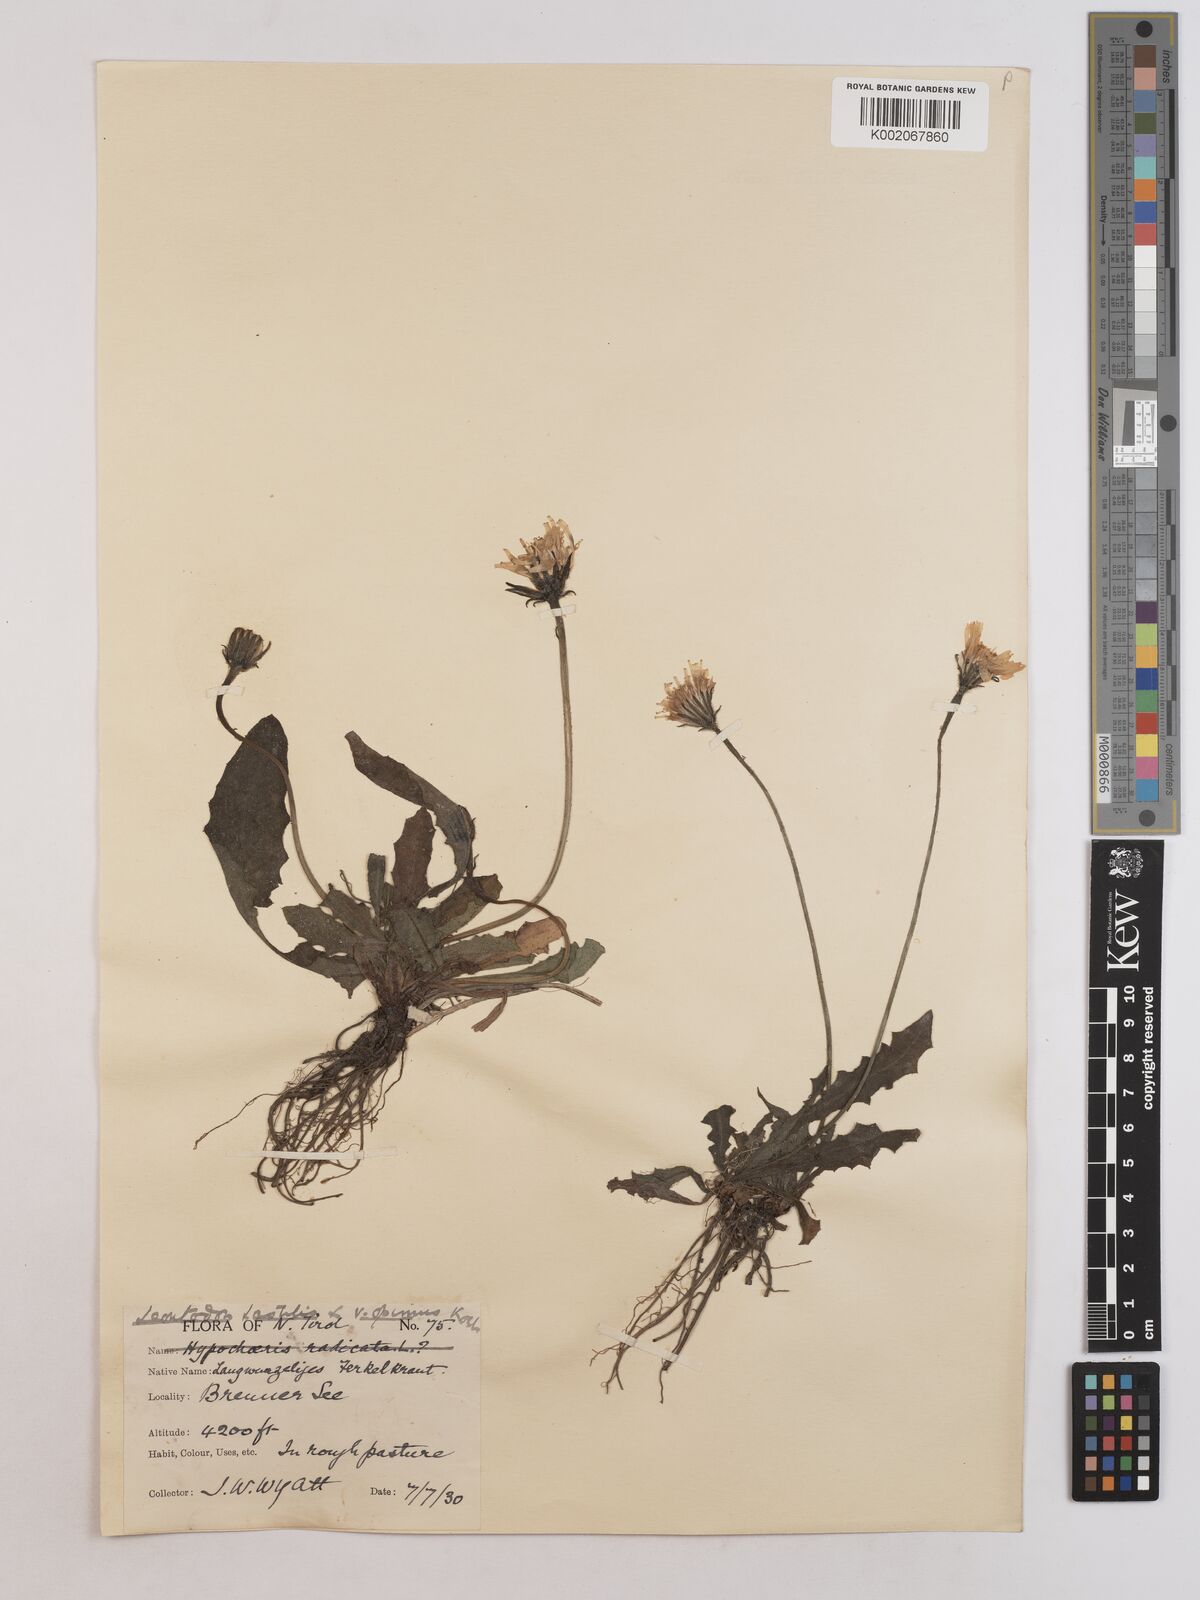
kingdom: Plantae
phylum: Tracheophyta
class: Magnoliopsida
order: Asterales
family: Asteraceae
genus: Leontodon
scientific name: Leontodon
